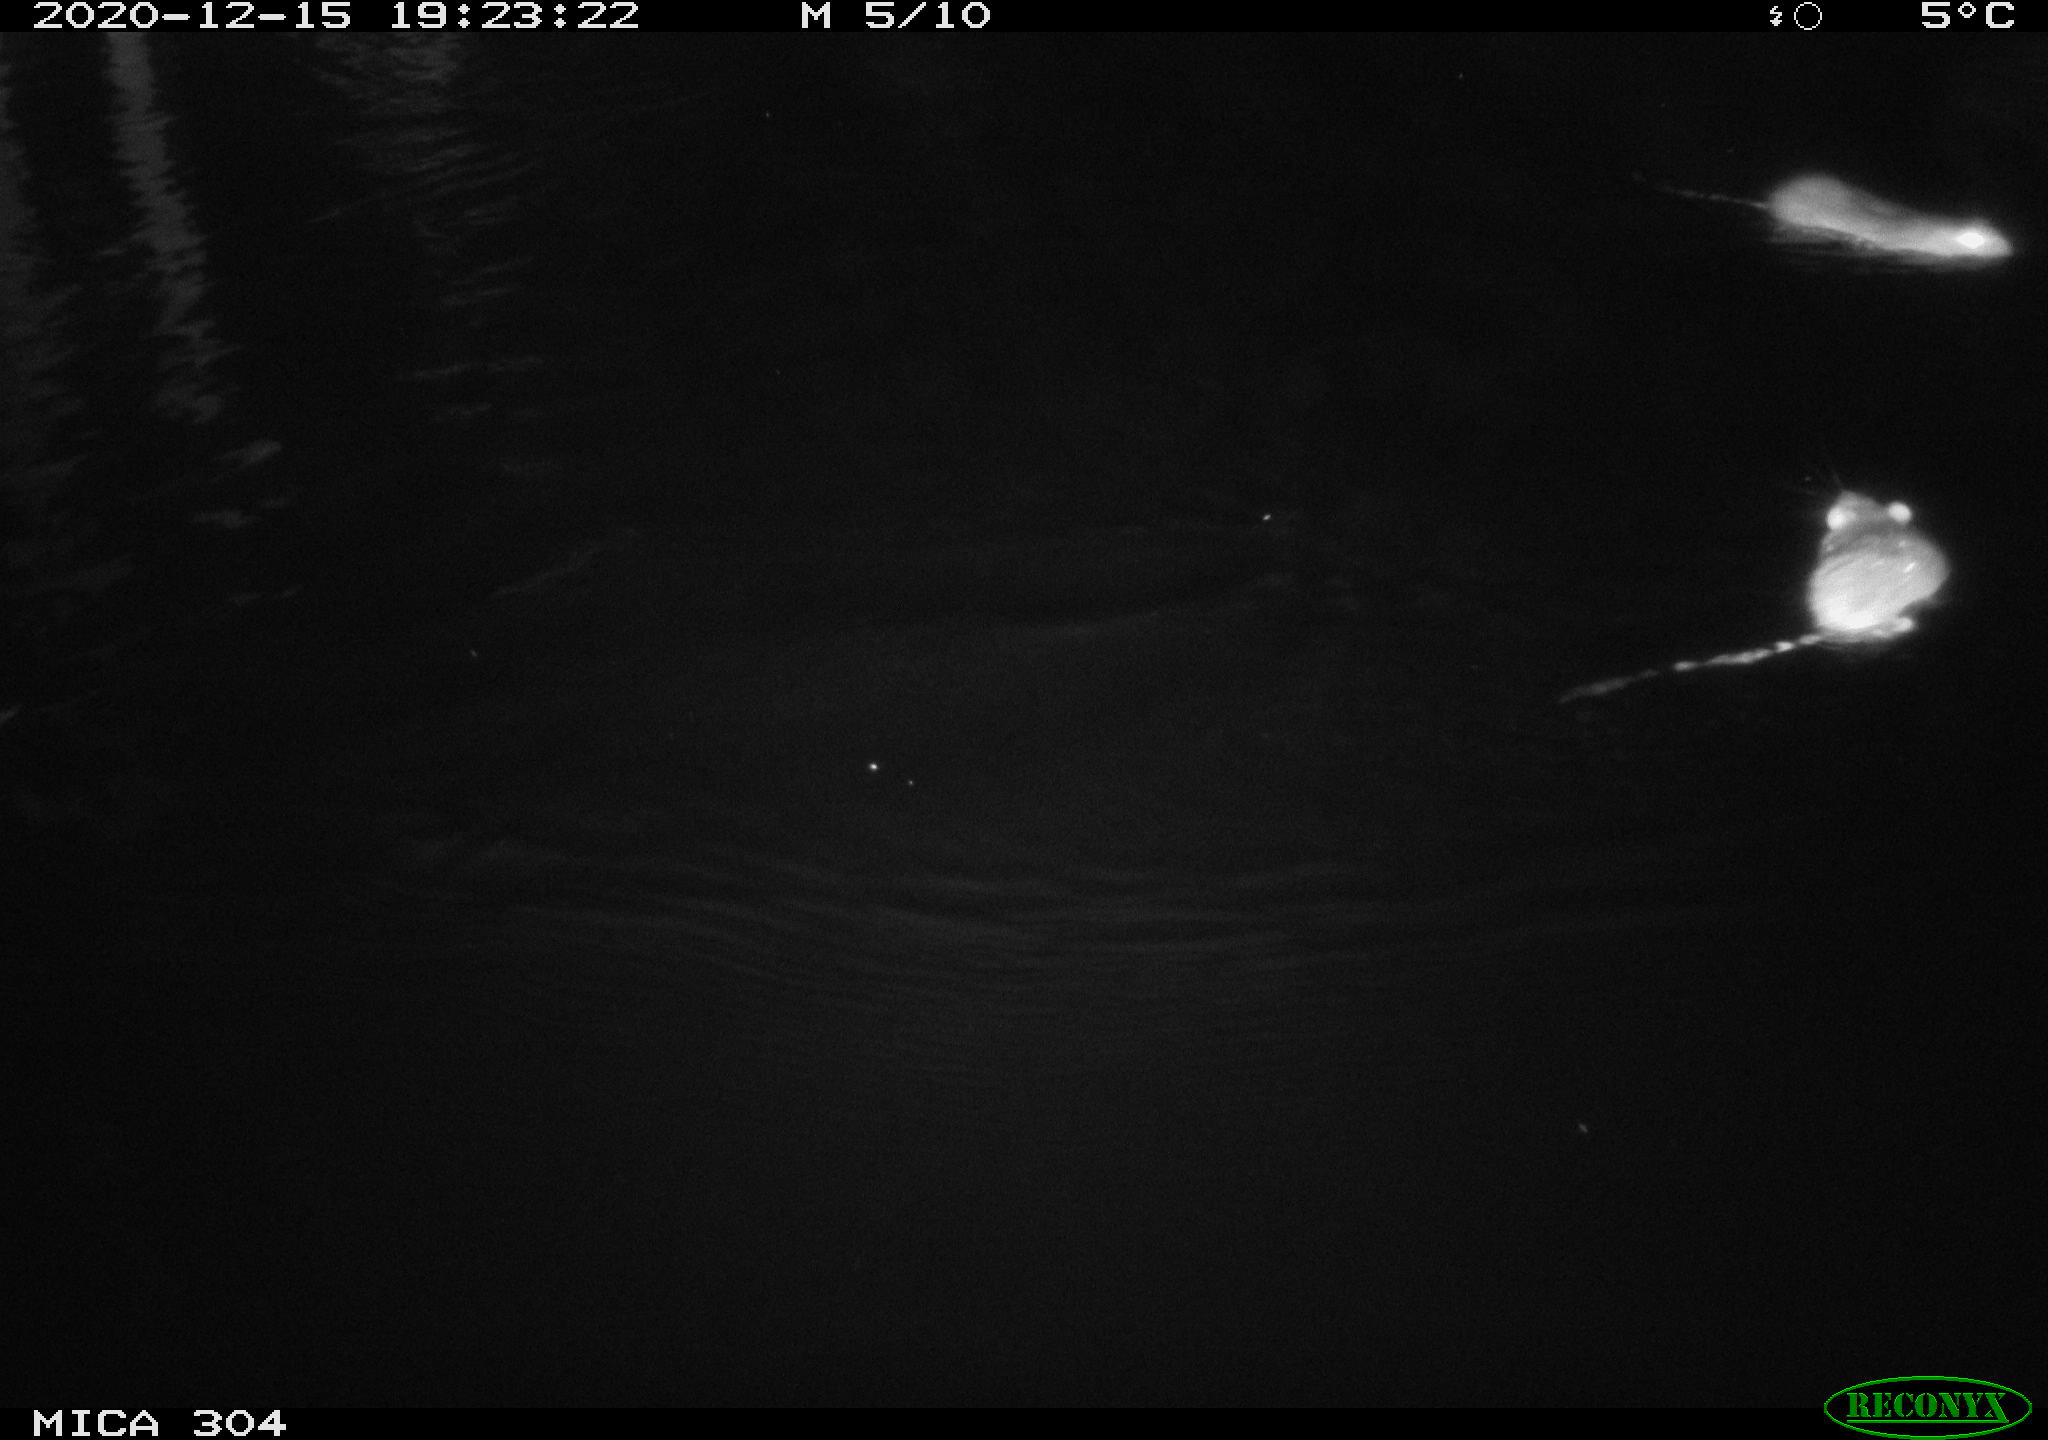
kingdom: Animalia
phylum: Chordata
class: Mammalia
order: Rodentia
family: Cricetidae
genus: Ondatra
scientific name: Ondatra zibethicus
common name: Muskrat
